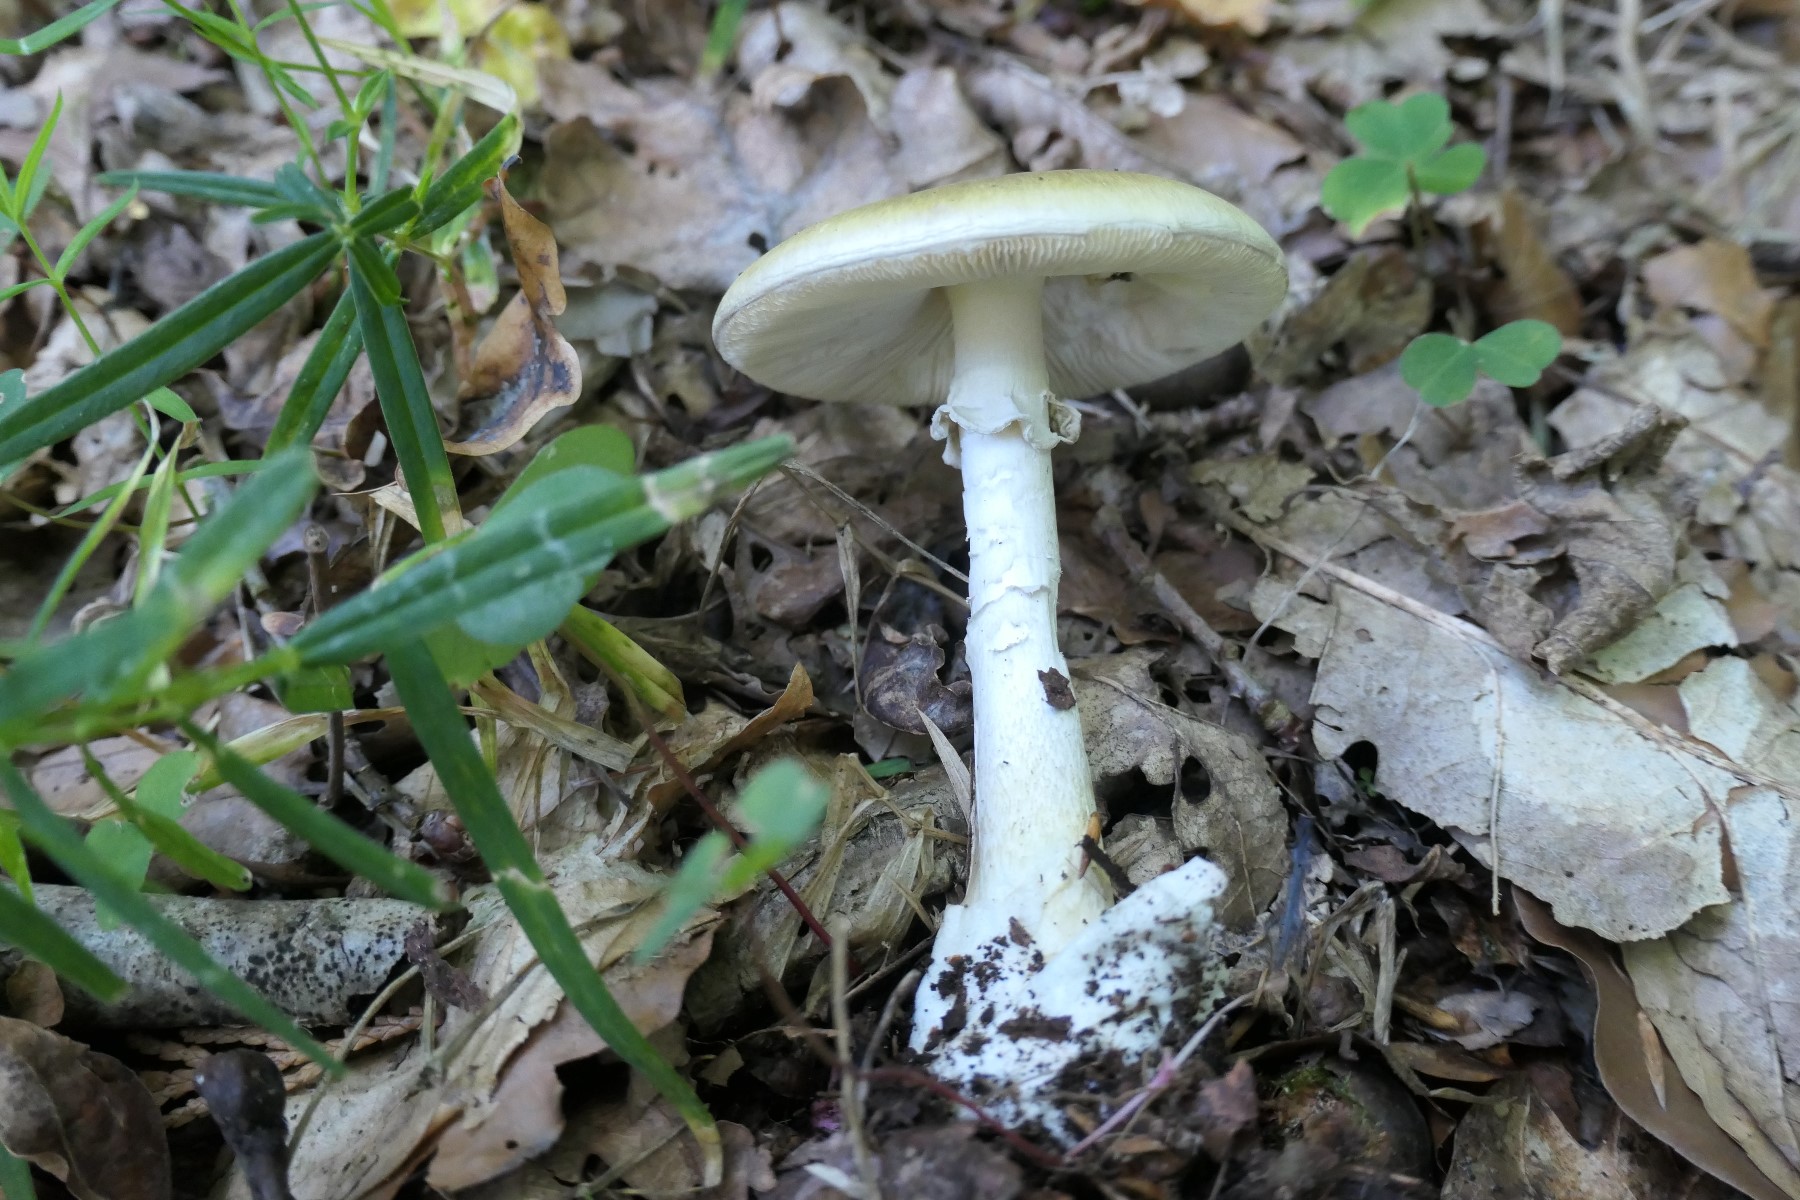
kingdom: Fungi
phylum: Basidiomycota
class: Agaricomycetes
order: Agaricales
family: Amanitaceae
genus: Amanita
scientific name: Amanita phalloides
